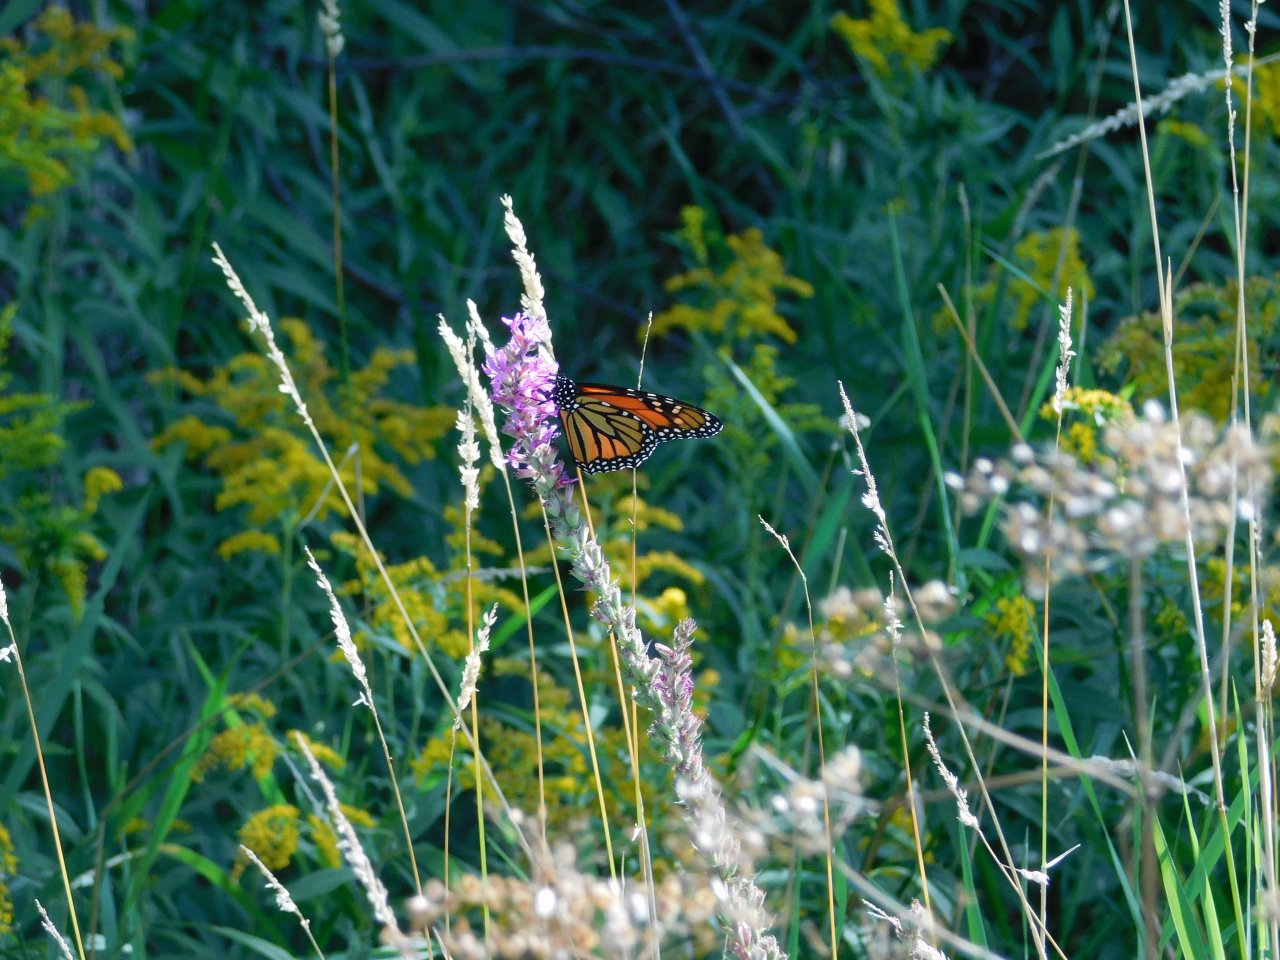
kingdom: Animalia
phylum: Arthropoda
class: Insecta
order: Lepidoptera
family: Nymphalidae
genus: Danaus
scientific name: Danaus plexippus
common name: Monarch
